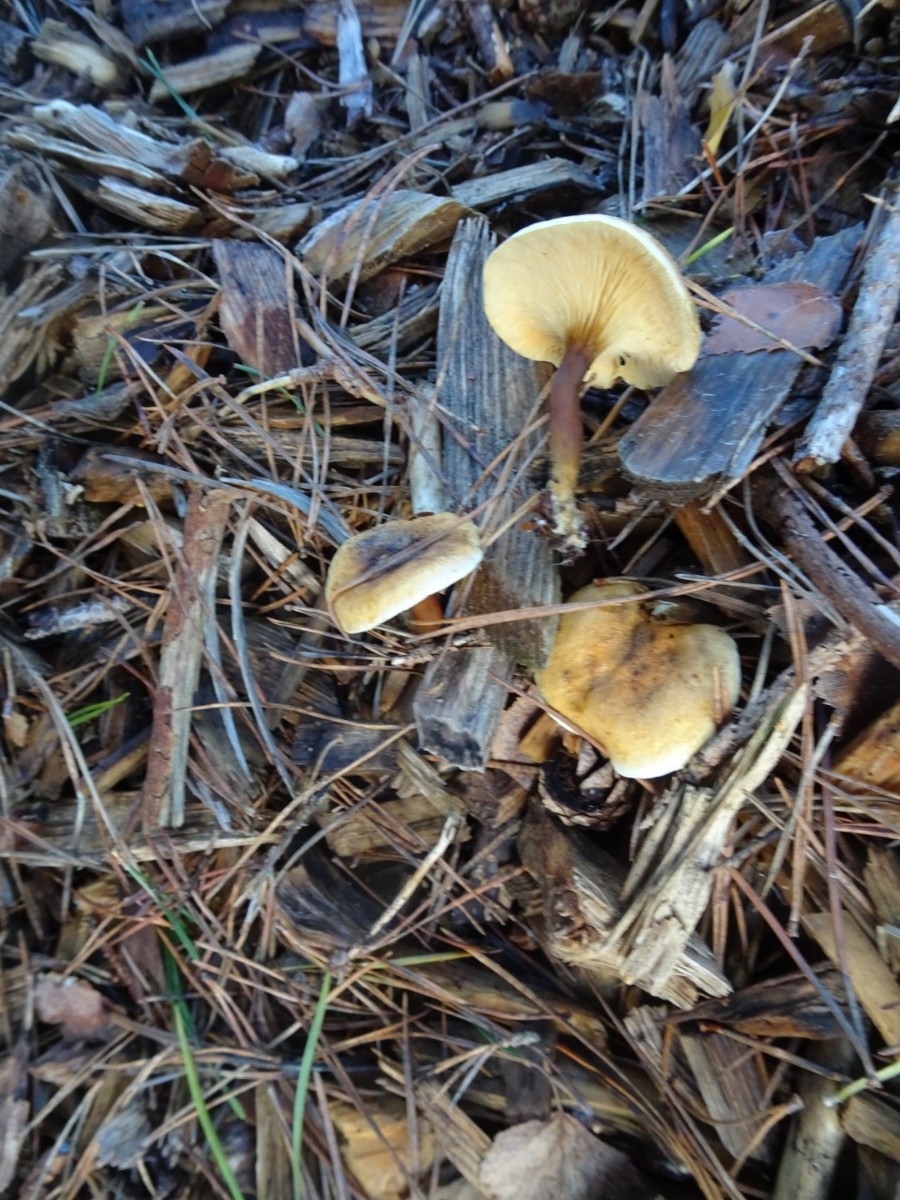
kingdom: Fungi
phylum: Basidiomycota
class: Agaricomycetes
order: Boletales
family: Hygrophoropsidaceae
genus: Hygrophoropsis
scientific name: Hygrophoropsis aurantiaca
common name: almindelig orangekantarel
